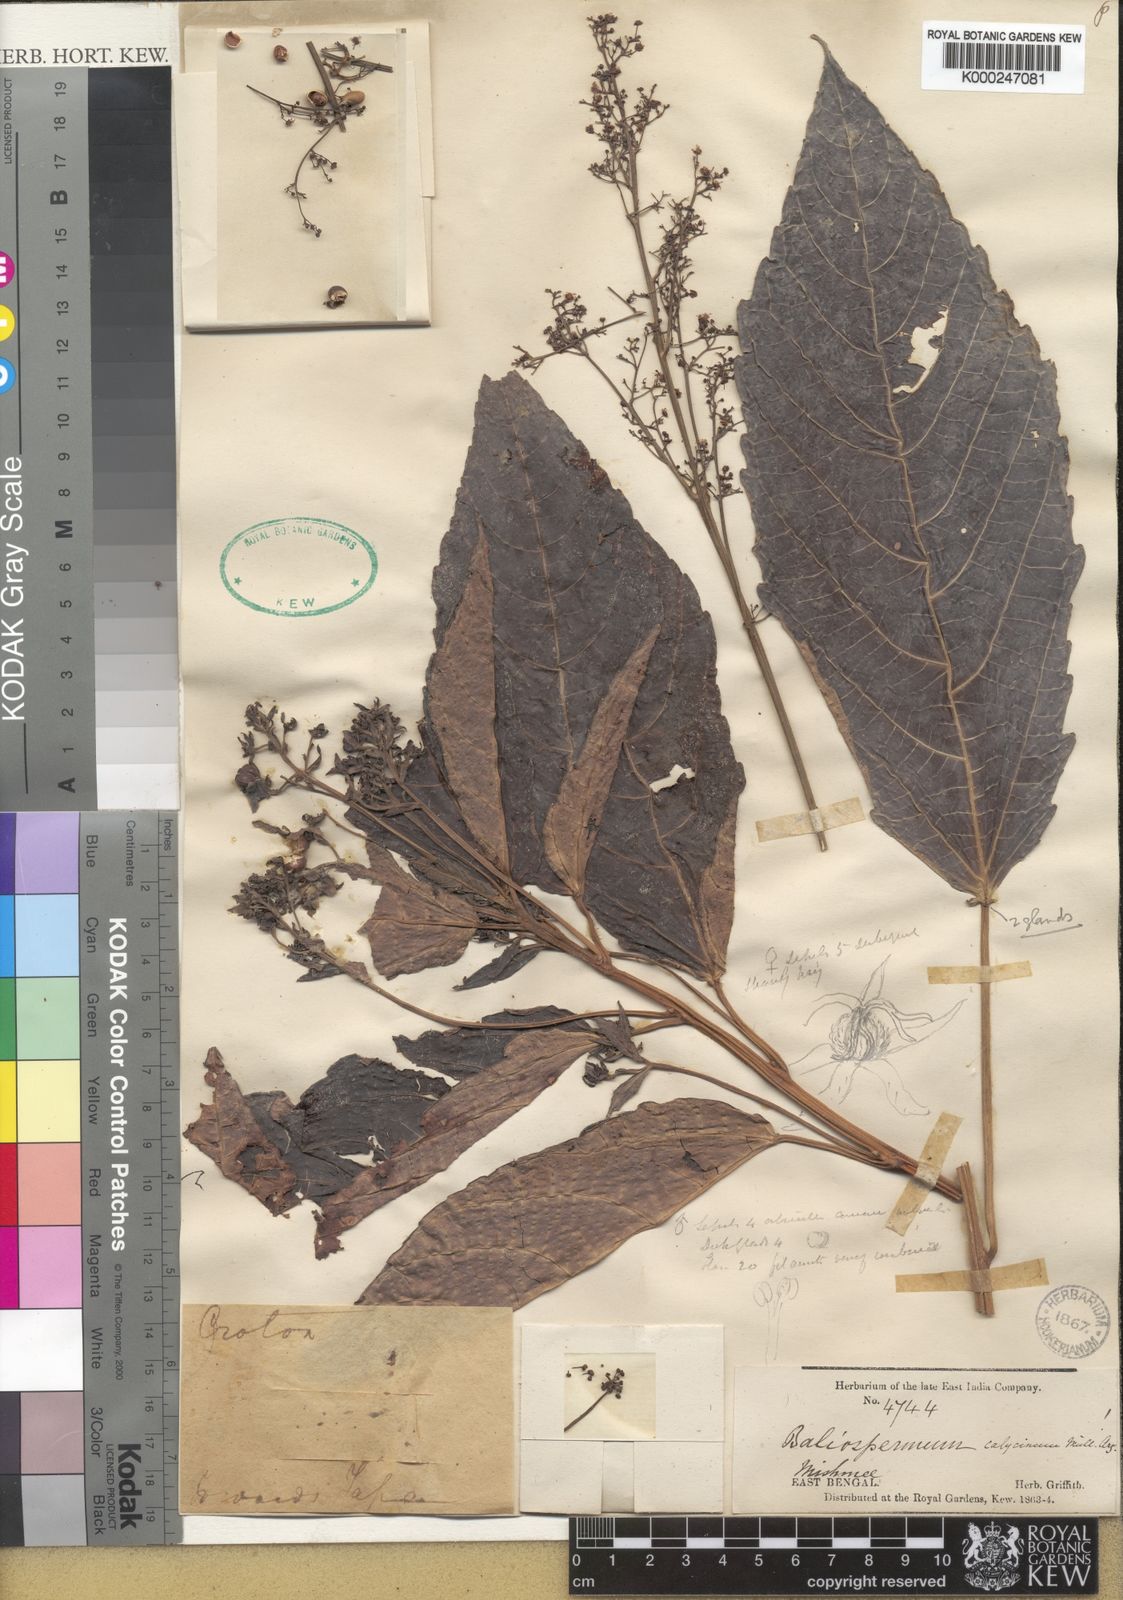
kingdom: Plantae
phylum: Tracheophyta
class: Magnoliopsida
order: Malpighiales
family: Euphorbiaceae
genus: Baliospermum
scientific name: Baliospermum
